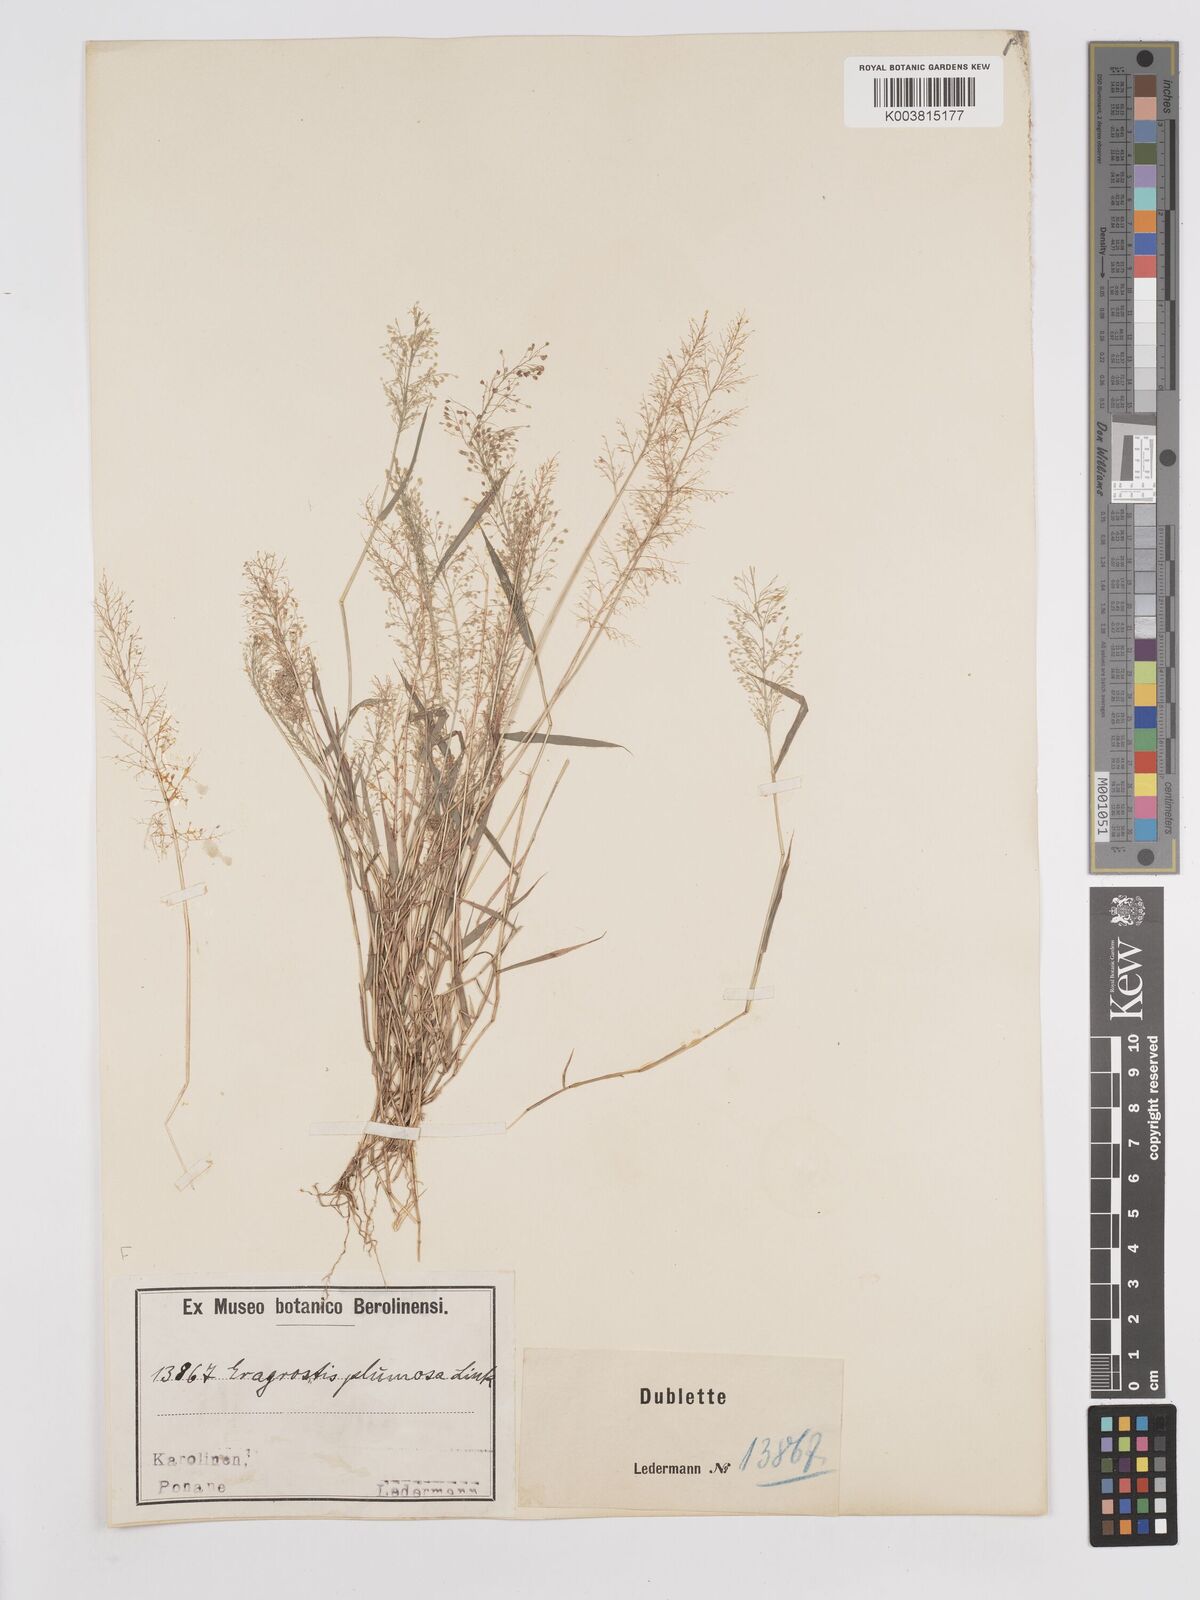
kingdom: Plantae
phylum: Tracheophyta
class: Liliopsida
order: Poales
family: Poaceae
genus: Eragrostis
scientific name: Eragrostis tenella
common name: Japanese lovegrass
